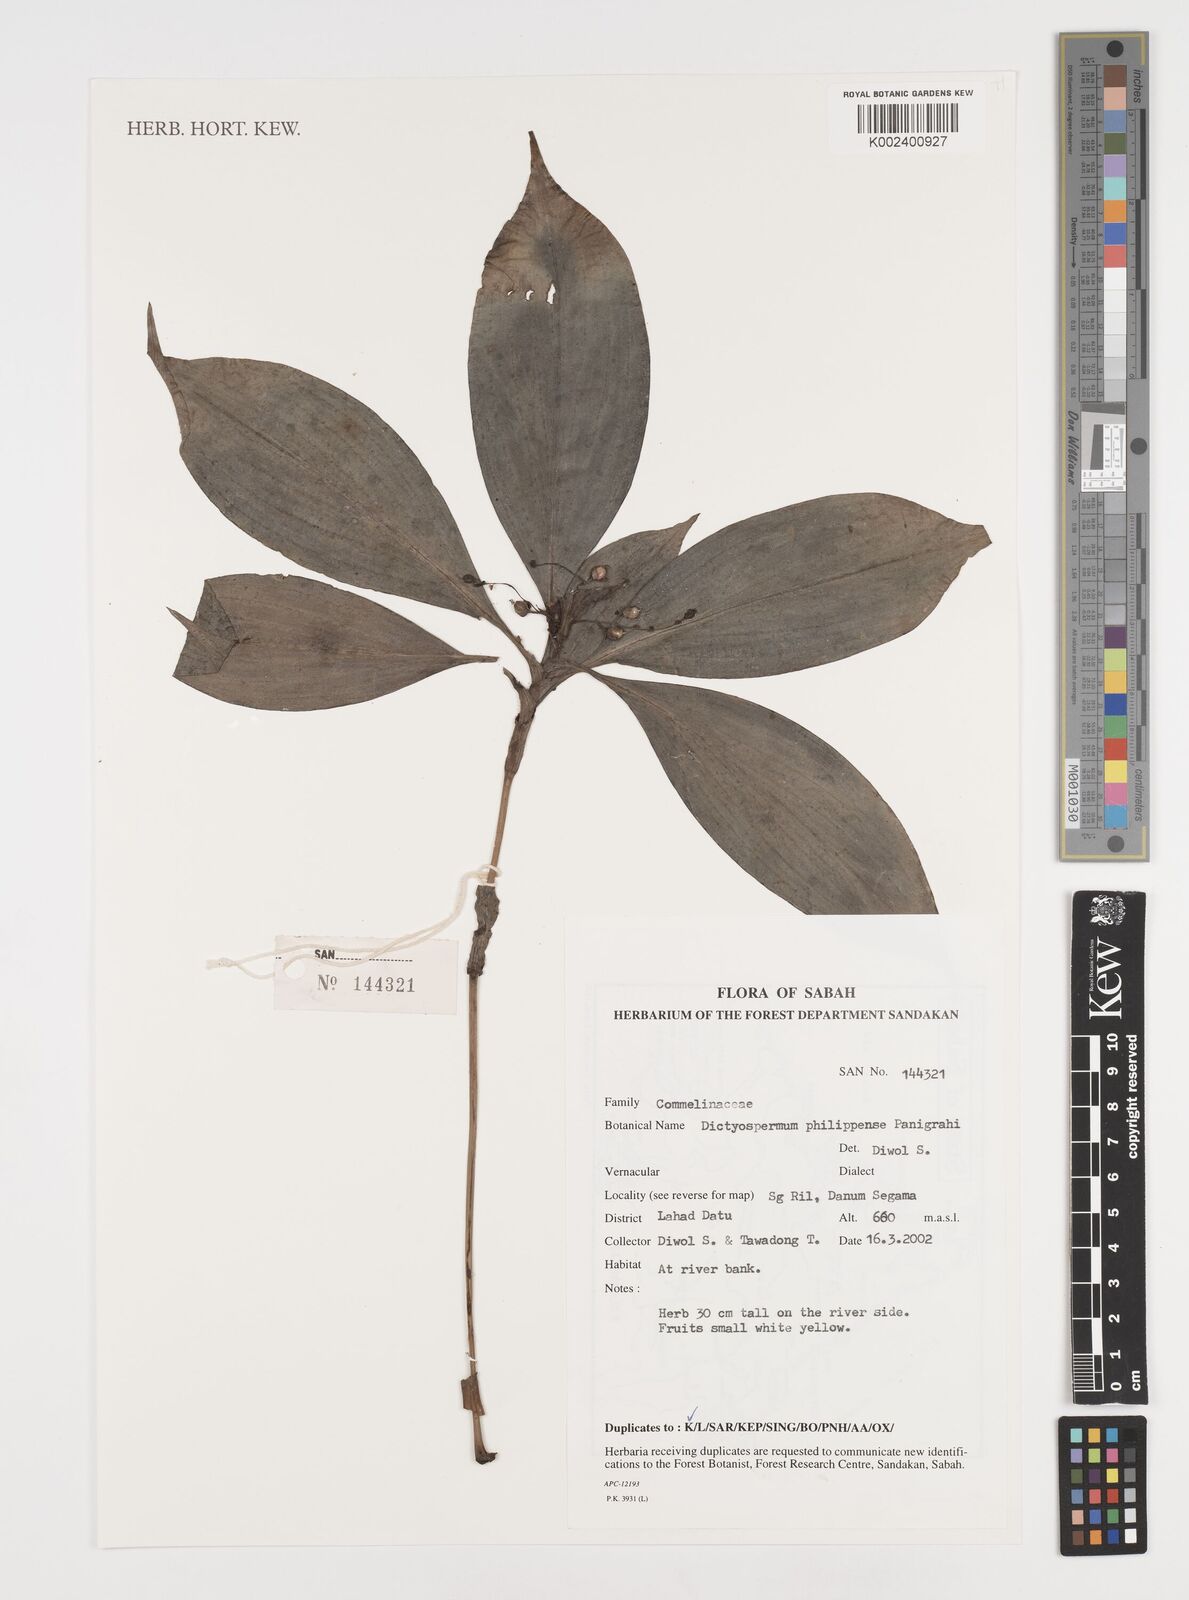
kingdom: Plantae
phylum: Tracheophyta
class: Liliopsida
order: Commelinales
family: Commelinaceae
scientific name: Commelinaceae
